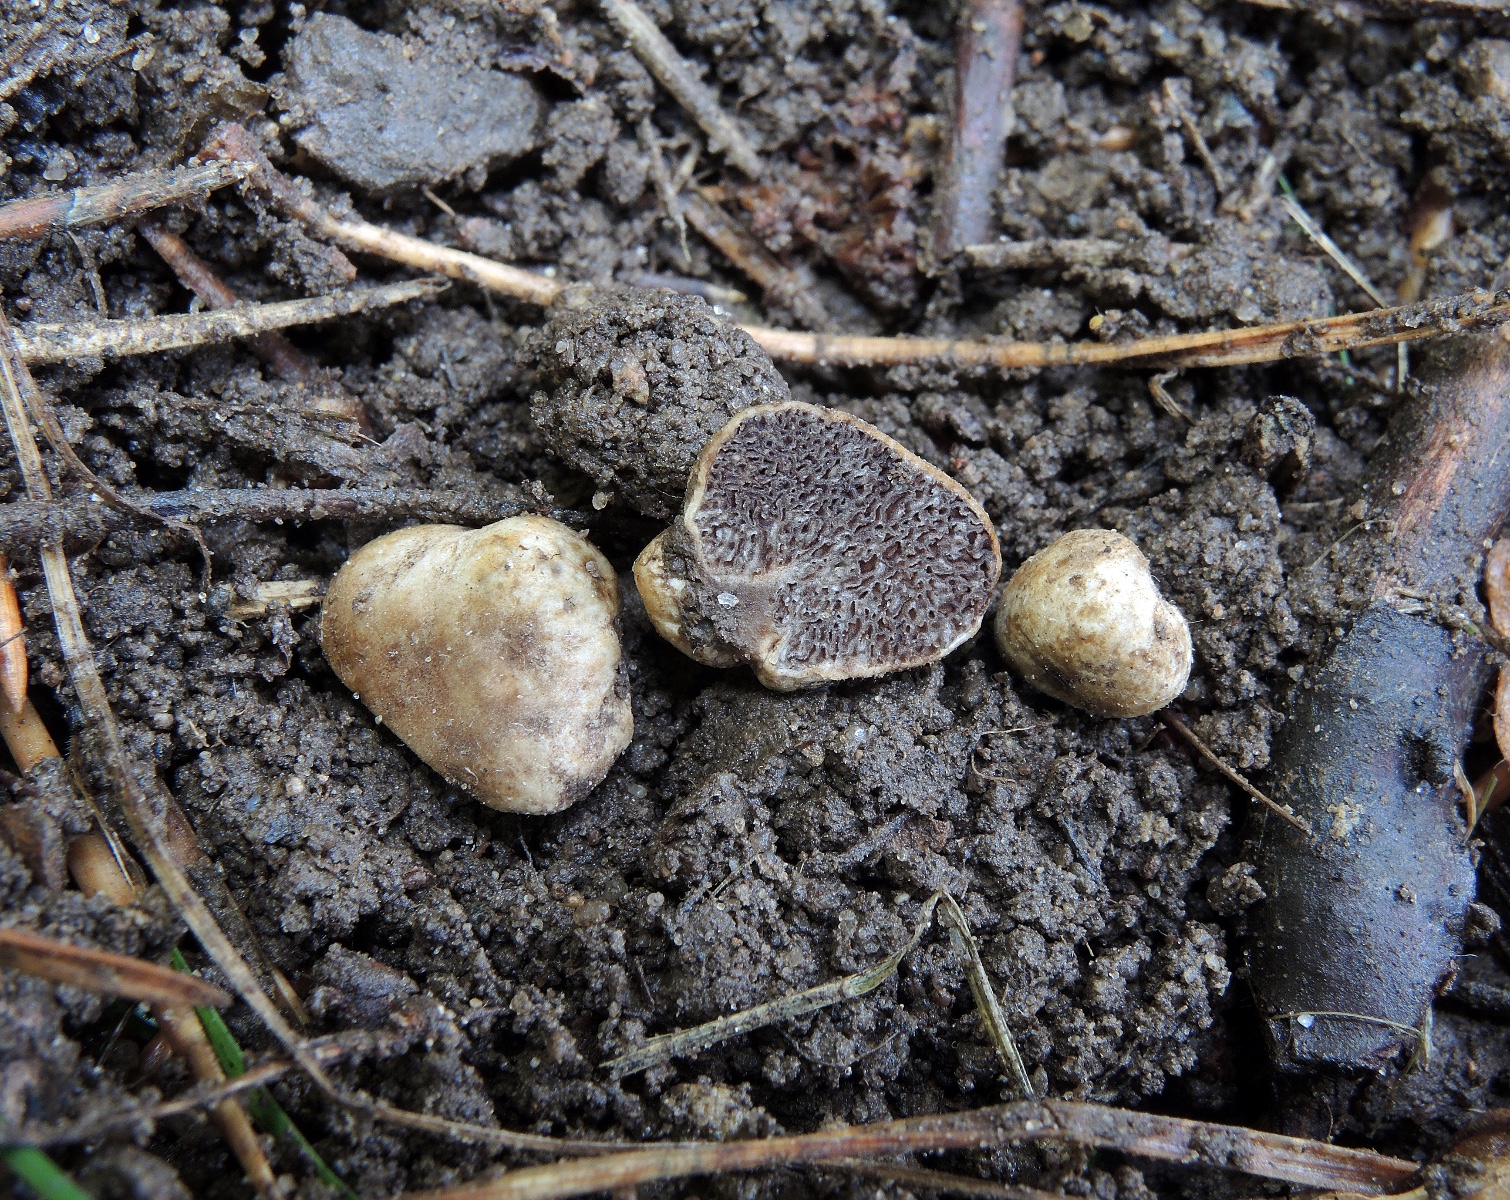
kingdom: Fungi
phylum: Basidiomycota
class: Agaricomycetes
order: Agaricales
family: Hymenogastraceae
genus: Hymenogaster
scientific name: Hymenogaster
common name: knoldtrøffel
